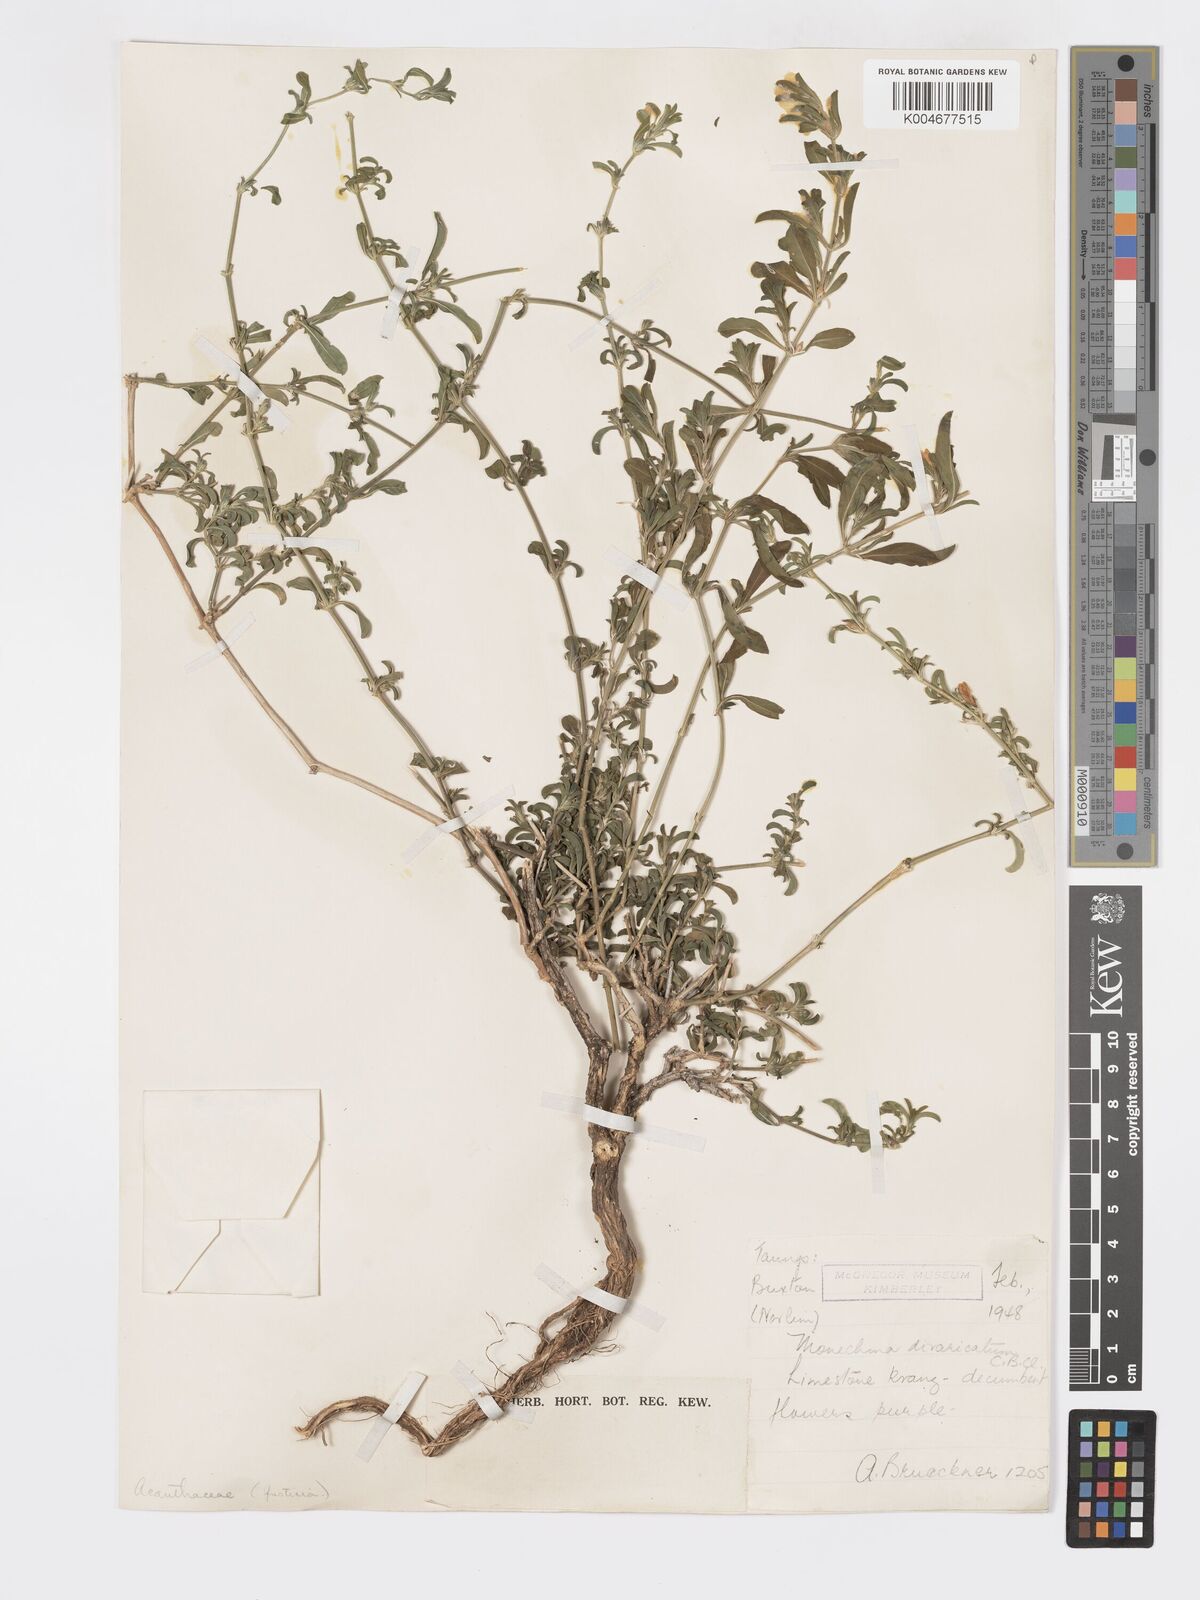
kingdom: Plantae
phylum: Tracheophyta
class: Magnoliopsida
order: Lamiales
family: Acanthaceae
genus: Pogonospermum
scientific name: Pogonospermum
